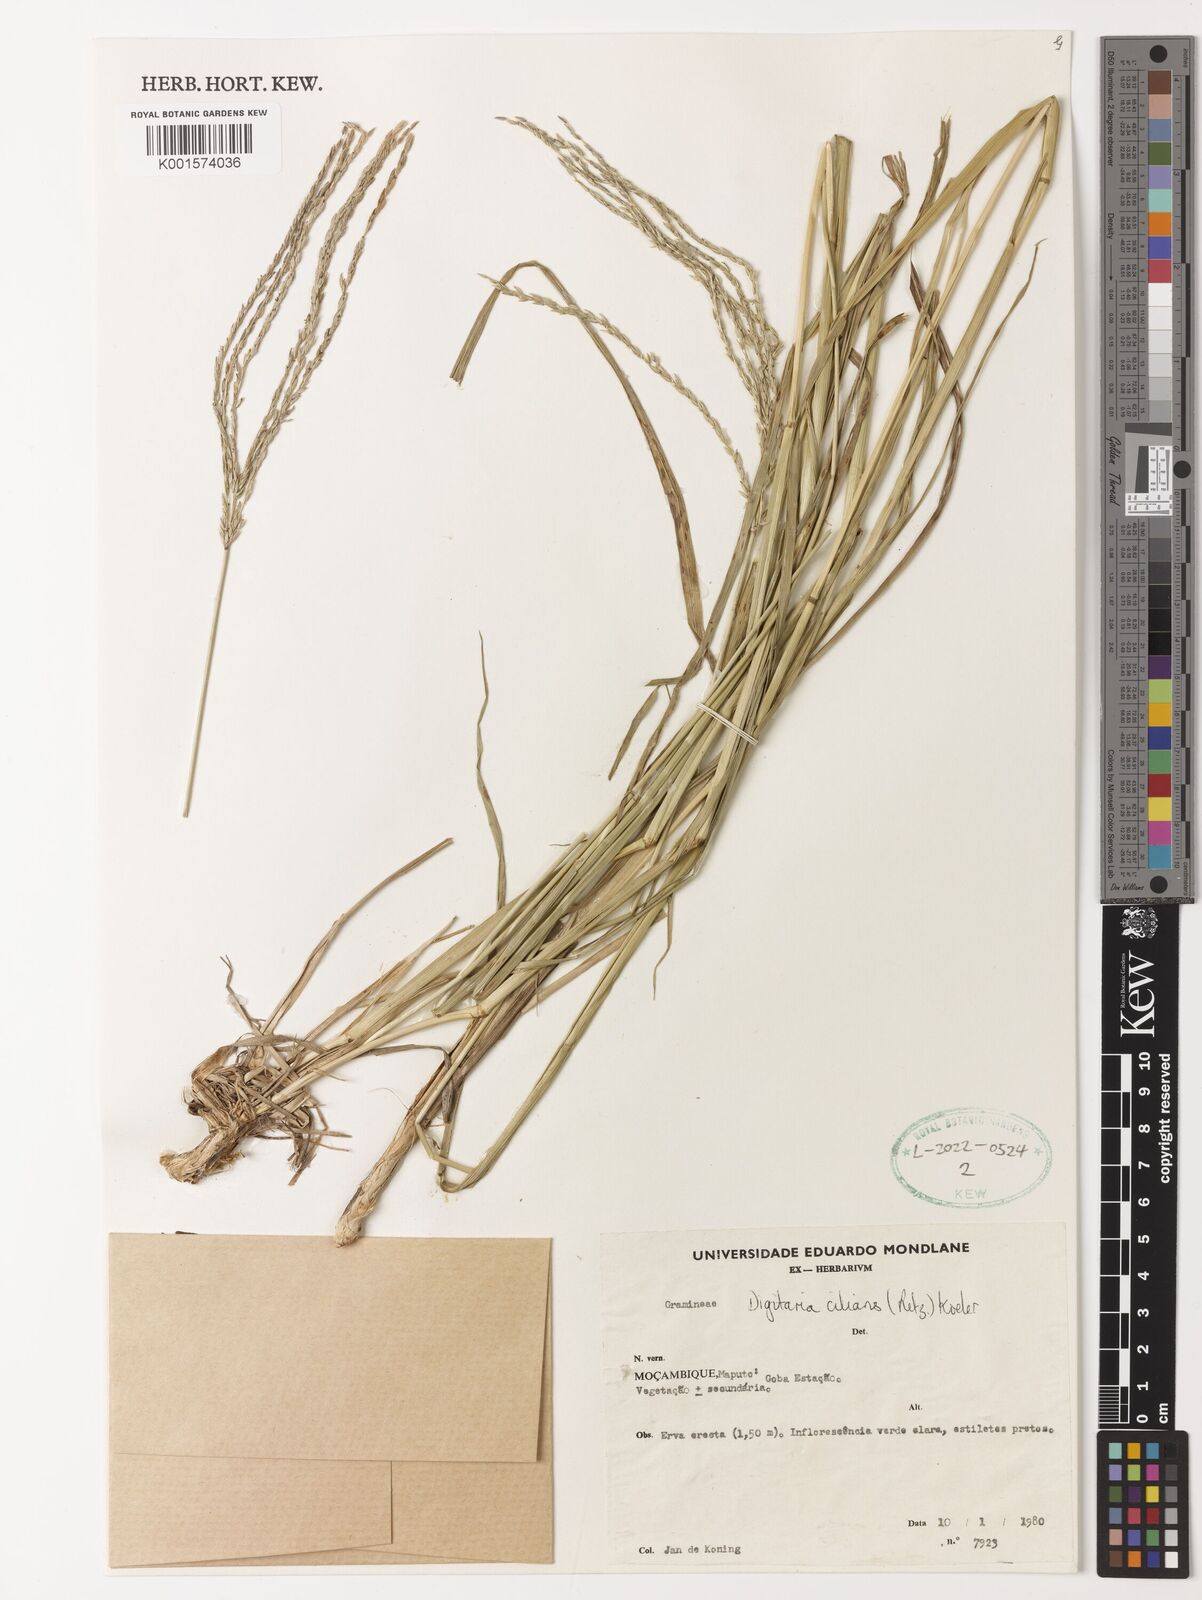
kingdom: Plantae
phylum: Tracheophyta
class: Liliopsida
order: Poales
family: Poaceae
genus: Digitaria
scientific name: Digitaria ciliaris
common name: Tropical finger-grass
